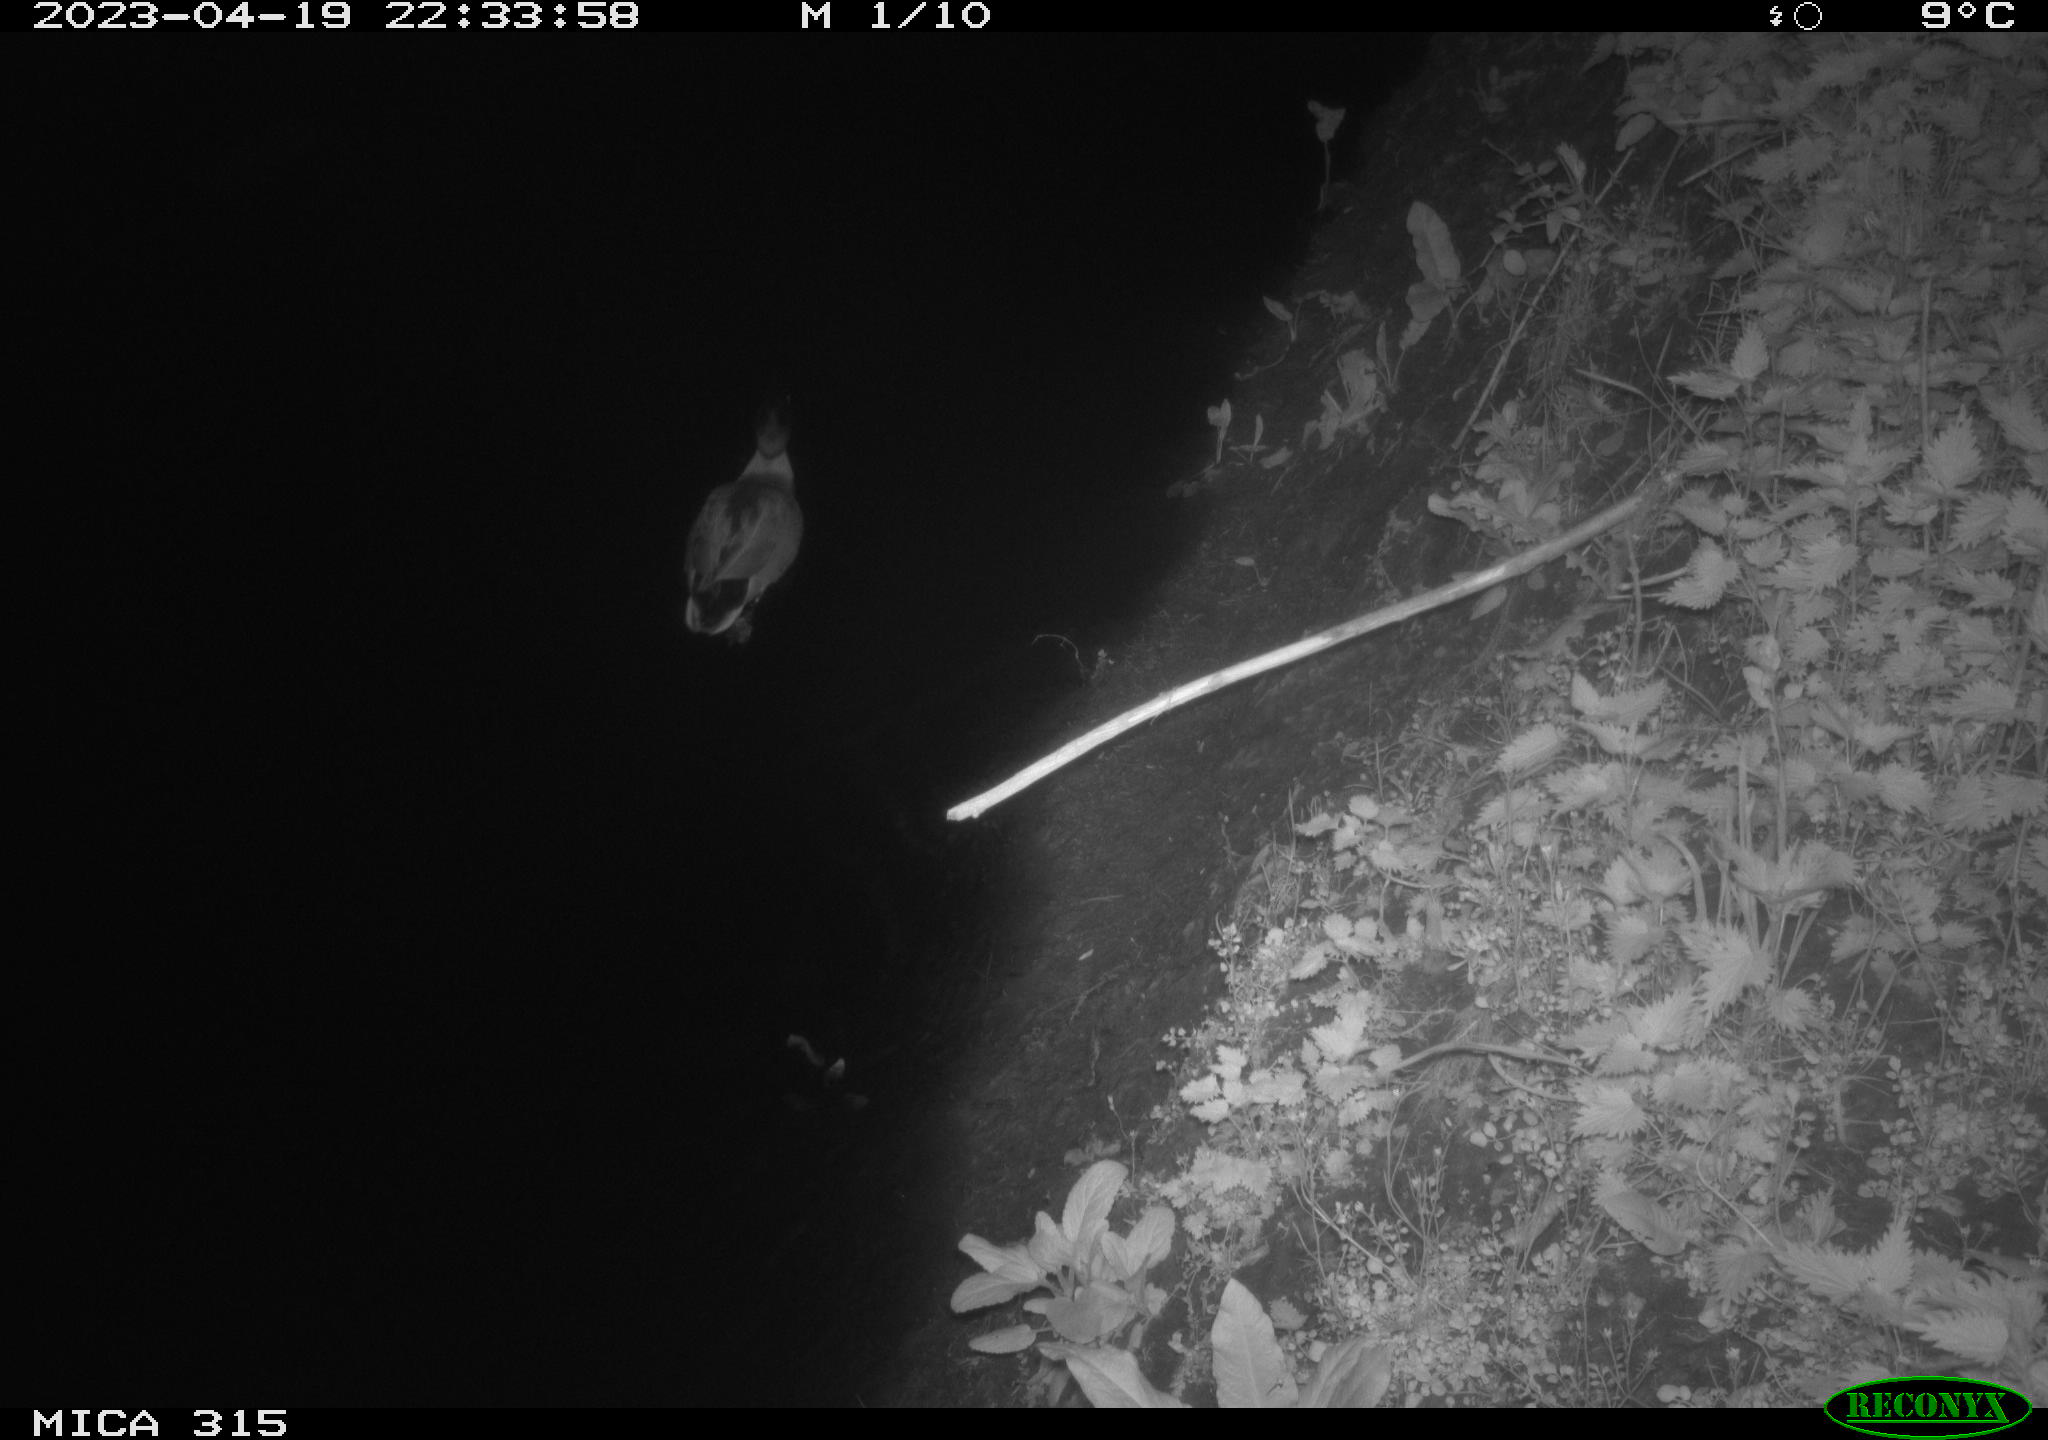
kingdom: Animalia
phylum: Chordata
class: Aves
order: Anseriformes
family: Anatidae
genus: Anas
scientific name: Anas
